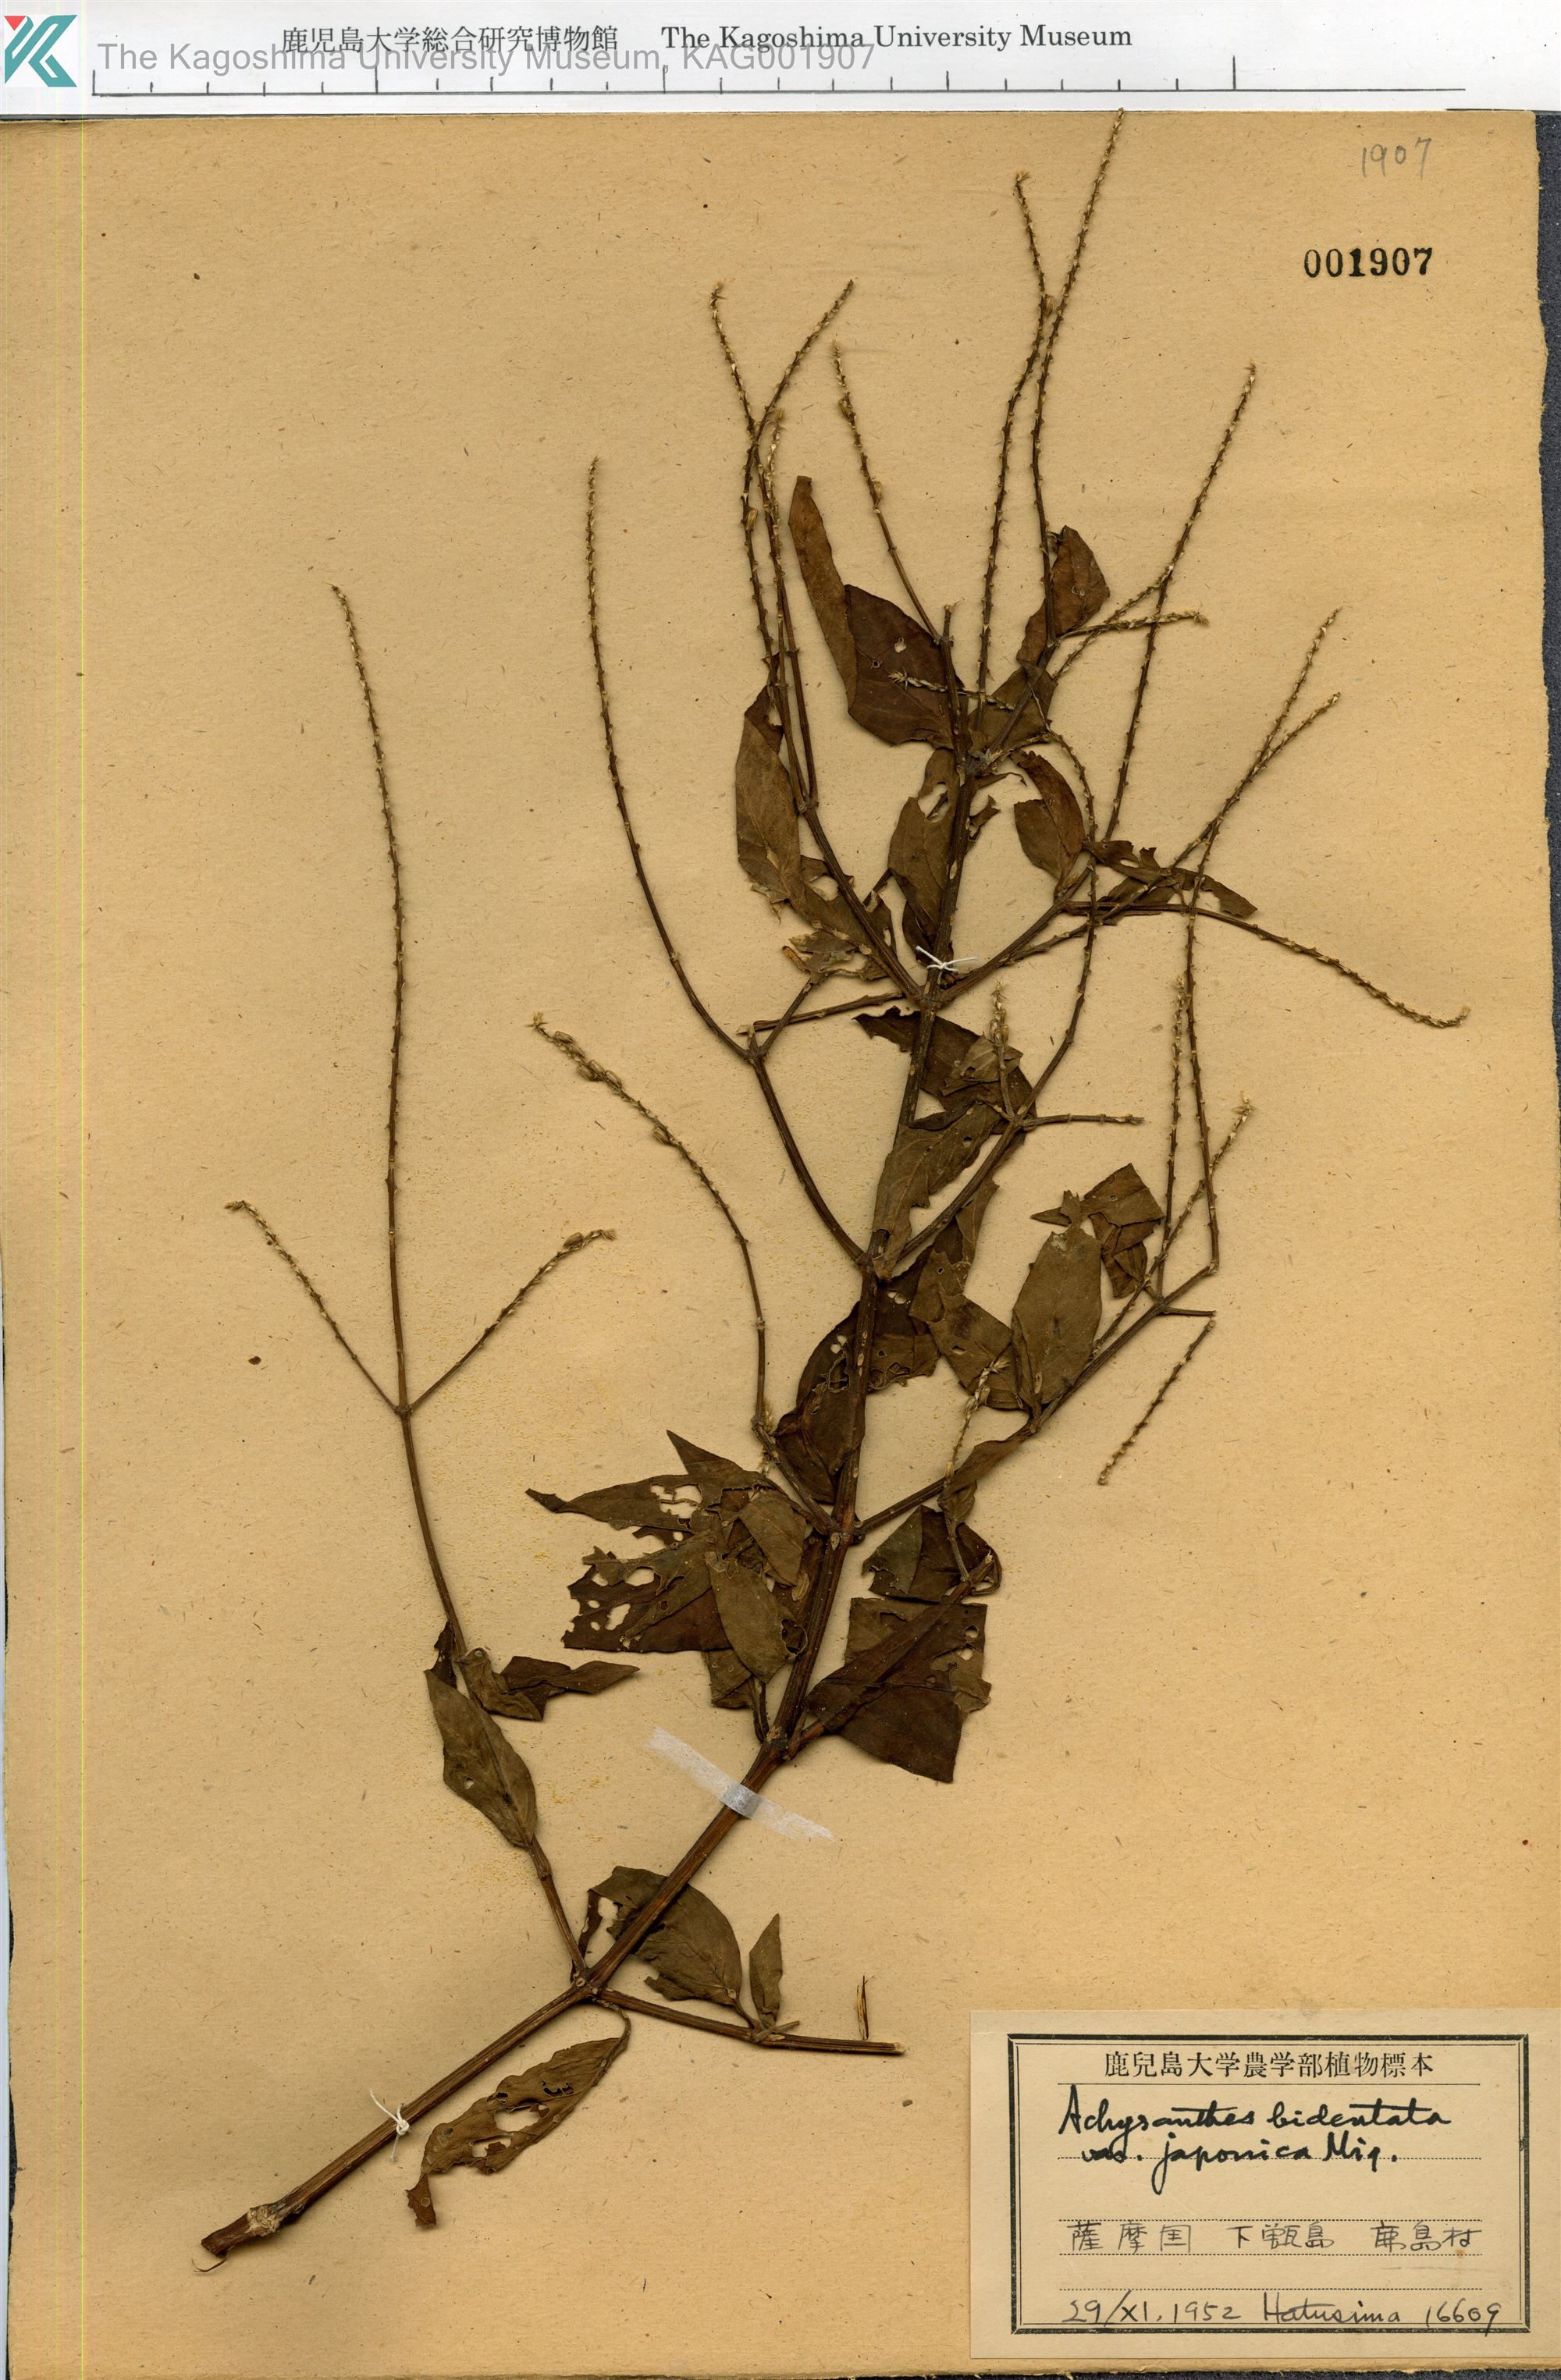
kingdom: Plantae
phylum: Tracheophyta
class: Magnoliopsida
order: Caryophyllales
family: Amaranthaceae
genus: Achyranthes
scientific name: Achyranthes bidentata
